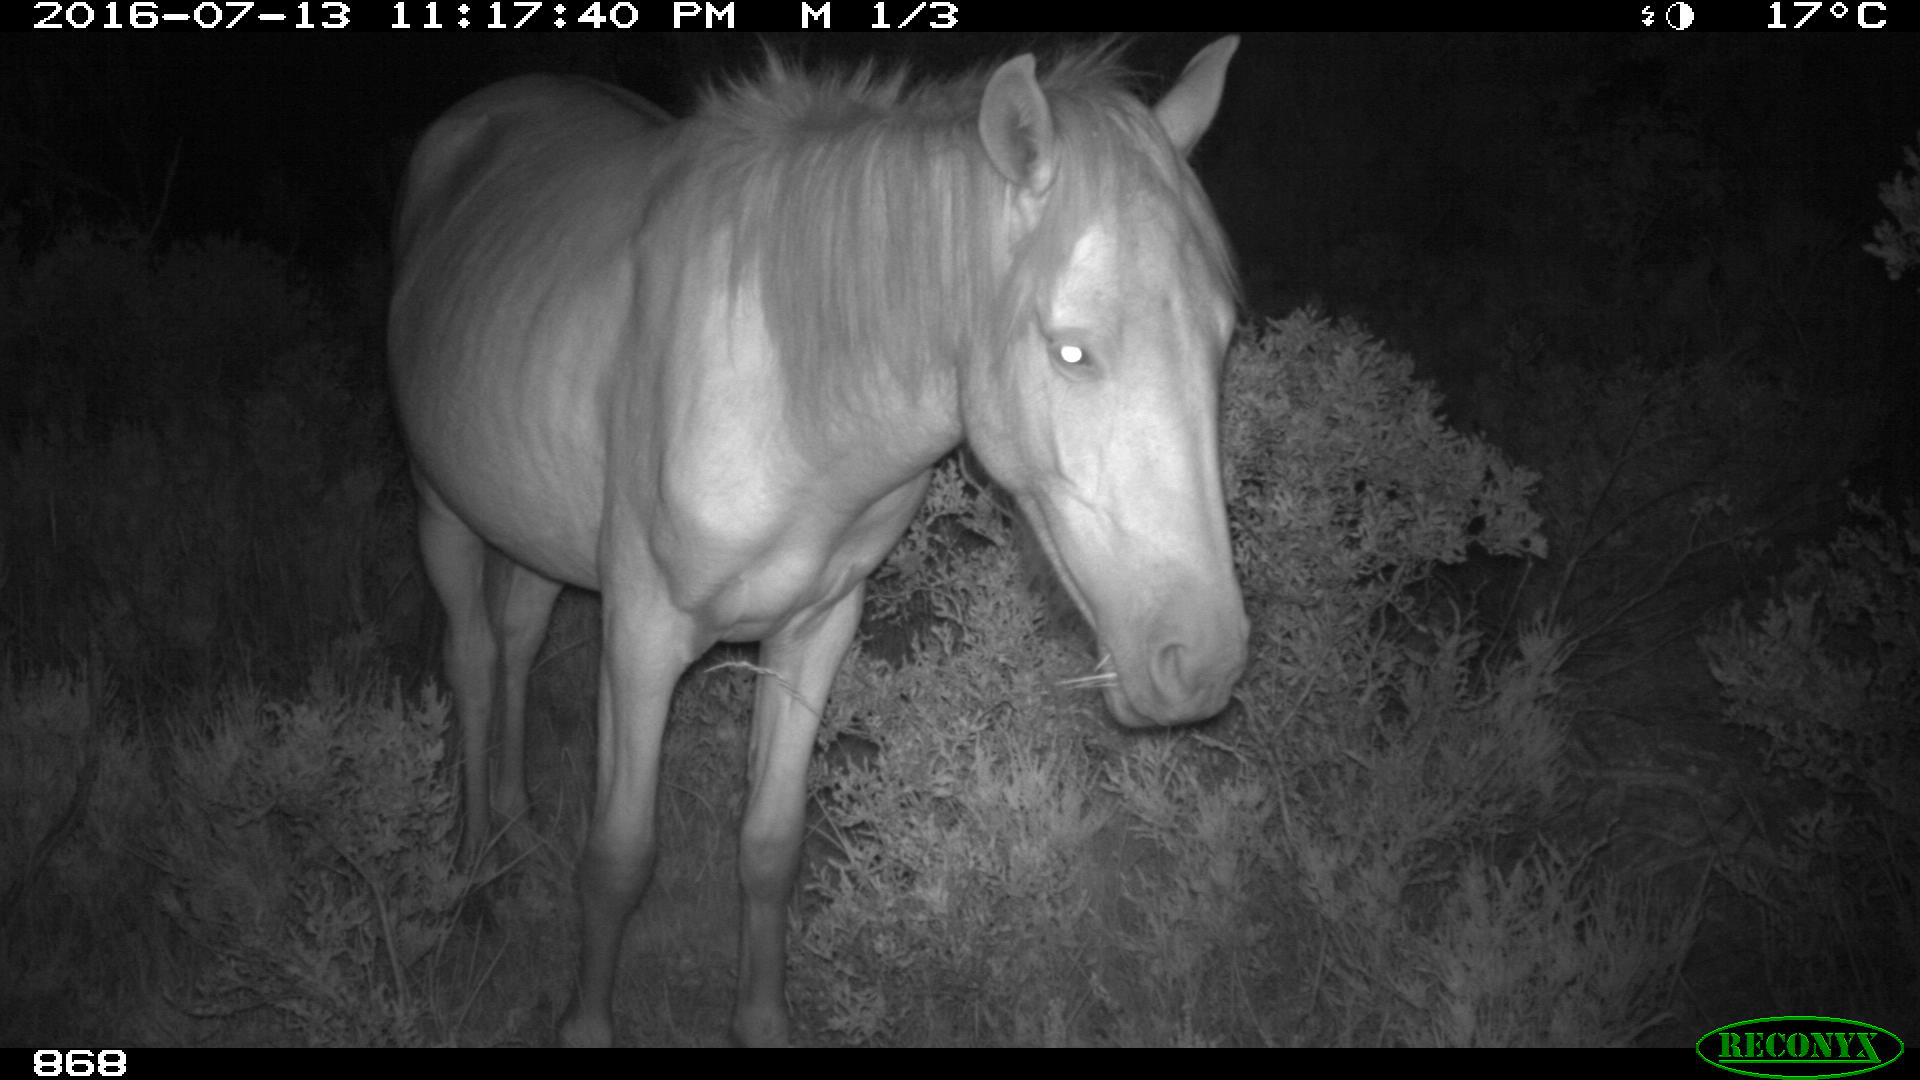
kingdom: Animalia
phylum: Chordata
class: Mammalia
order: Perissodactyla
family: Equidae
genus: Equus
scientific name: Equus caballus
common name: Horse
